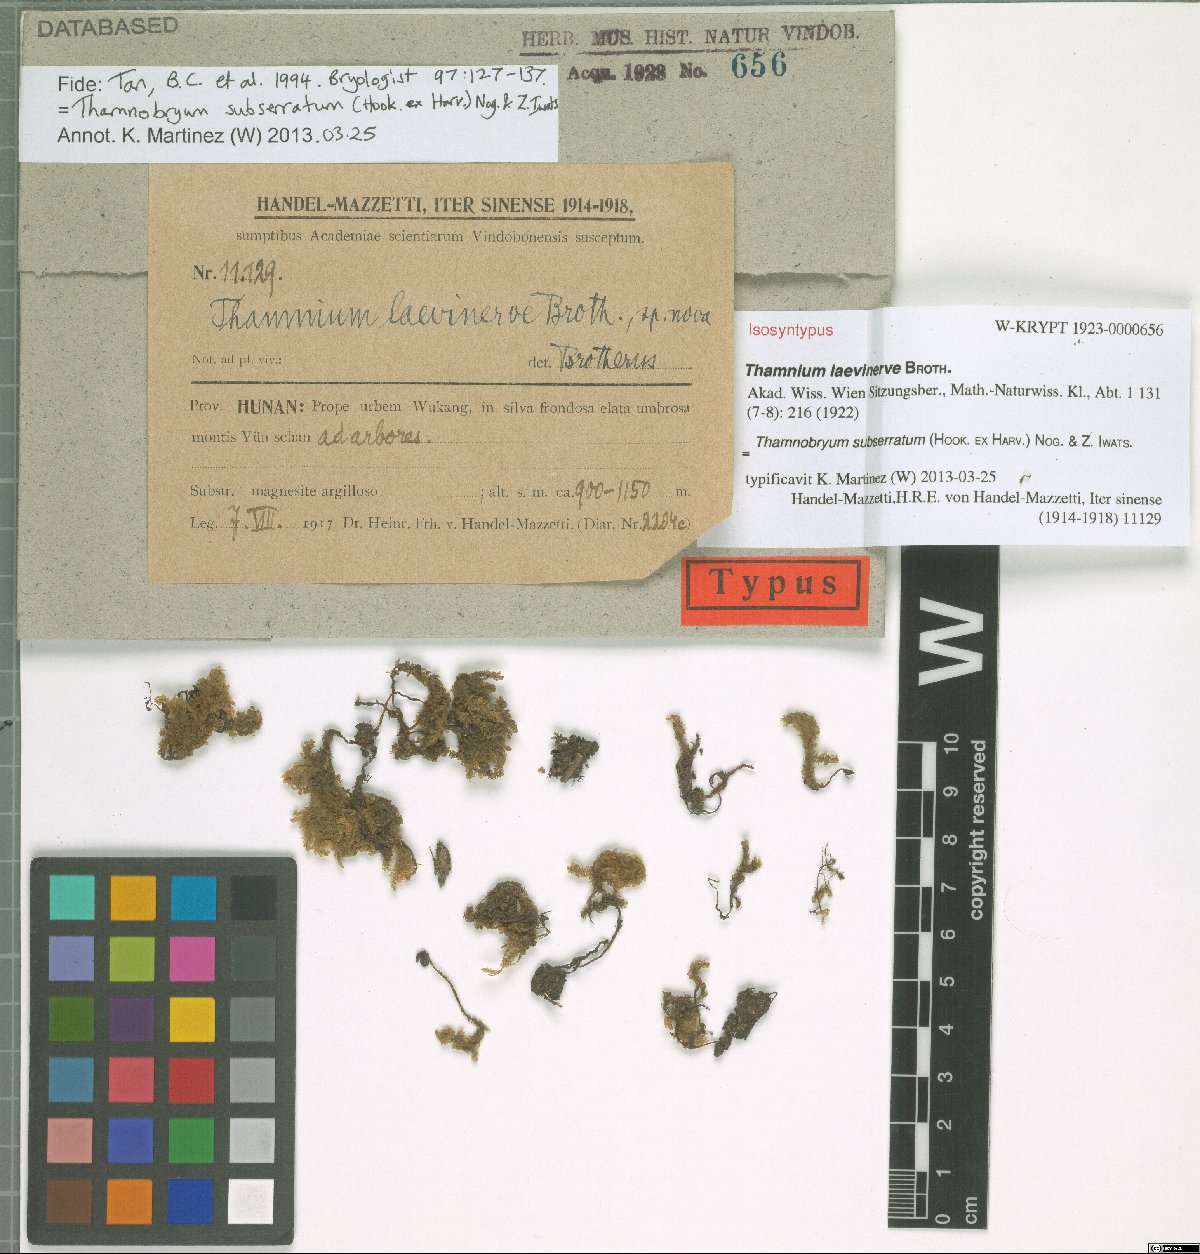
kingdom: Plantae
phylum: Bryophyta
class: Bryopsida
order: Hypnales
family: Neckeraceae
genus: Thamnobryum
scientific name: Thamnobryum neckeroides
